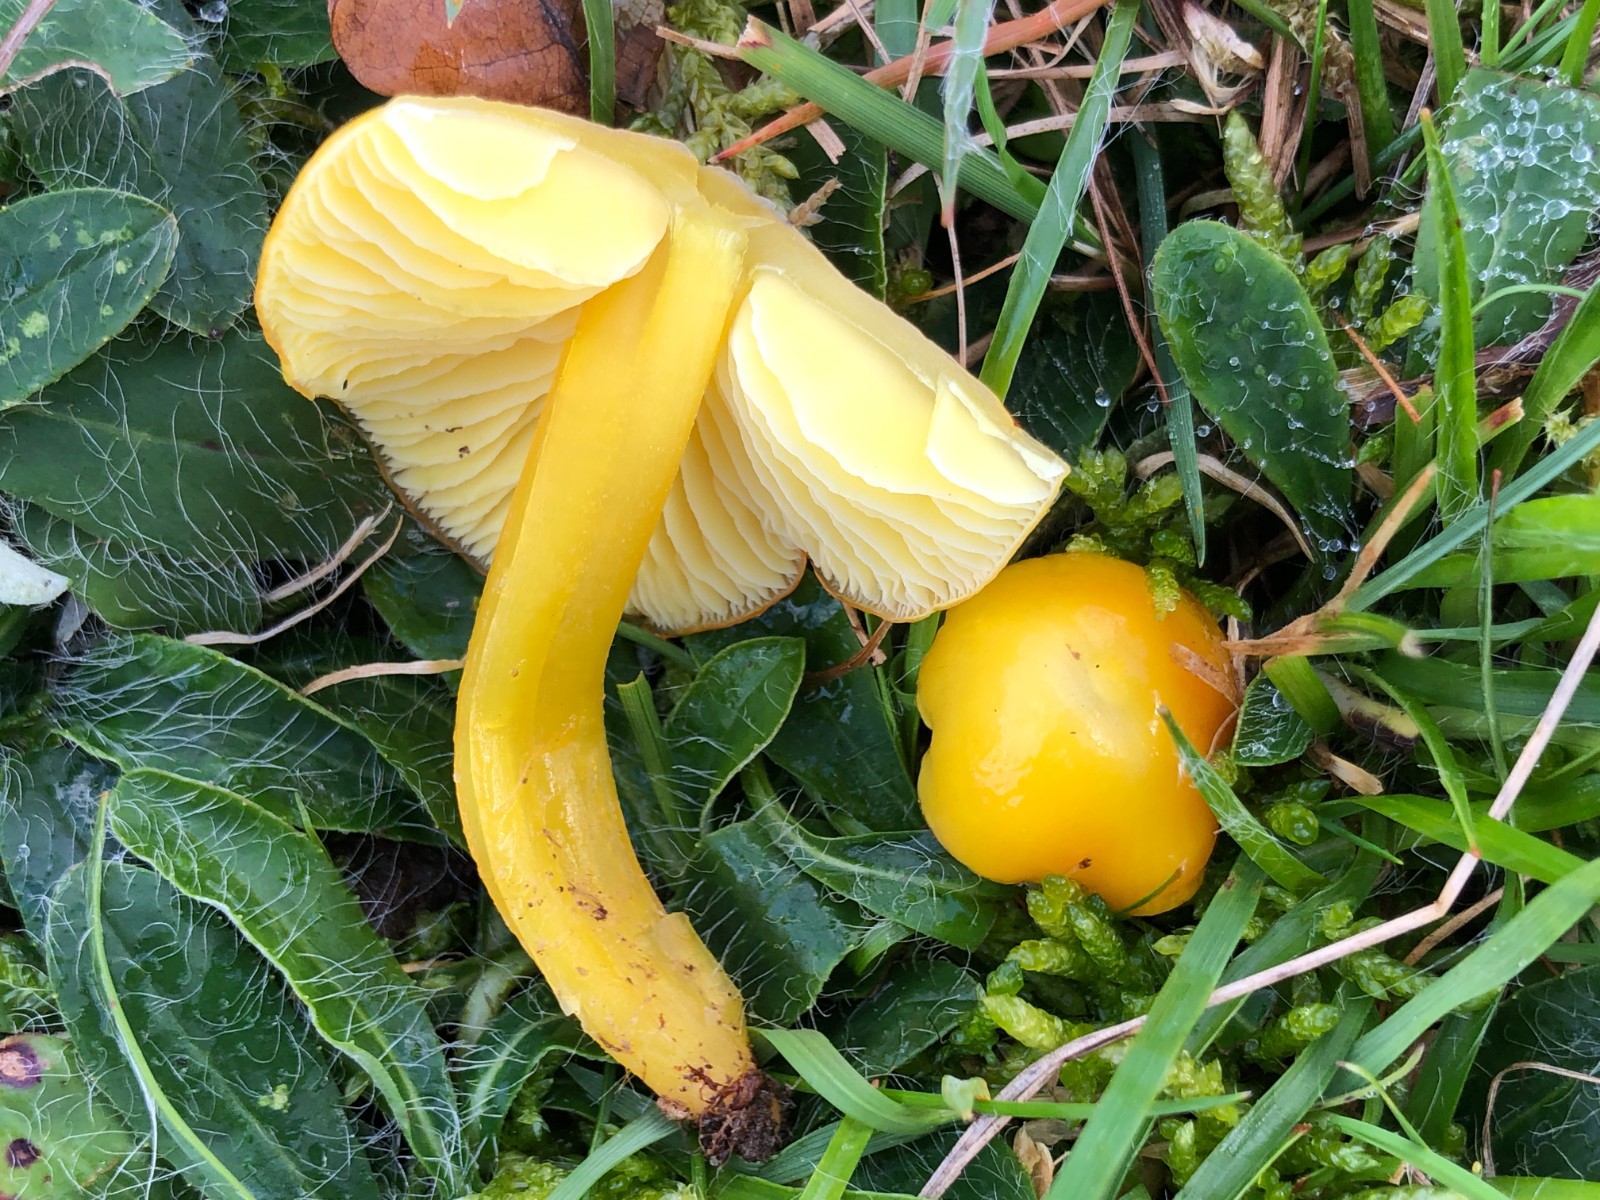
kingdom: Fungi
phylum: Basidiomycota
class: Agaricomycetes
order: Agaricales
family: Hygrophoraceae
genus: Hygrocybe
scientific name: Hygrocybe chlorophana
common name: gul vokshat
